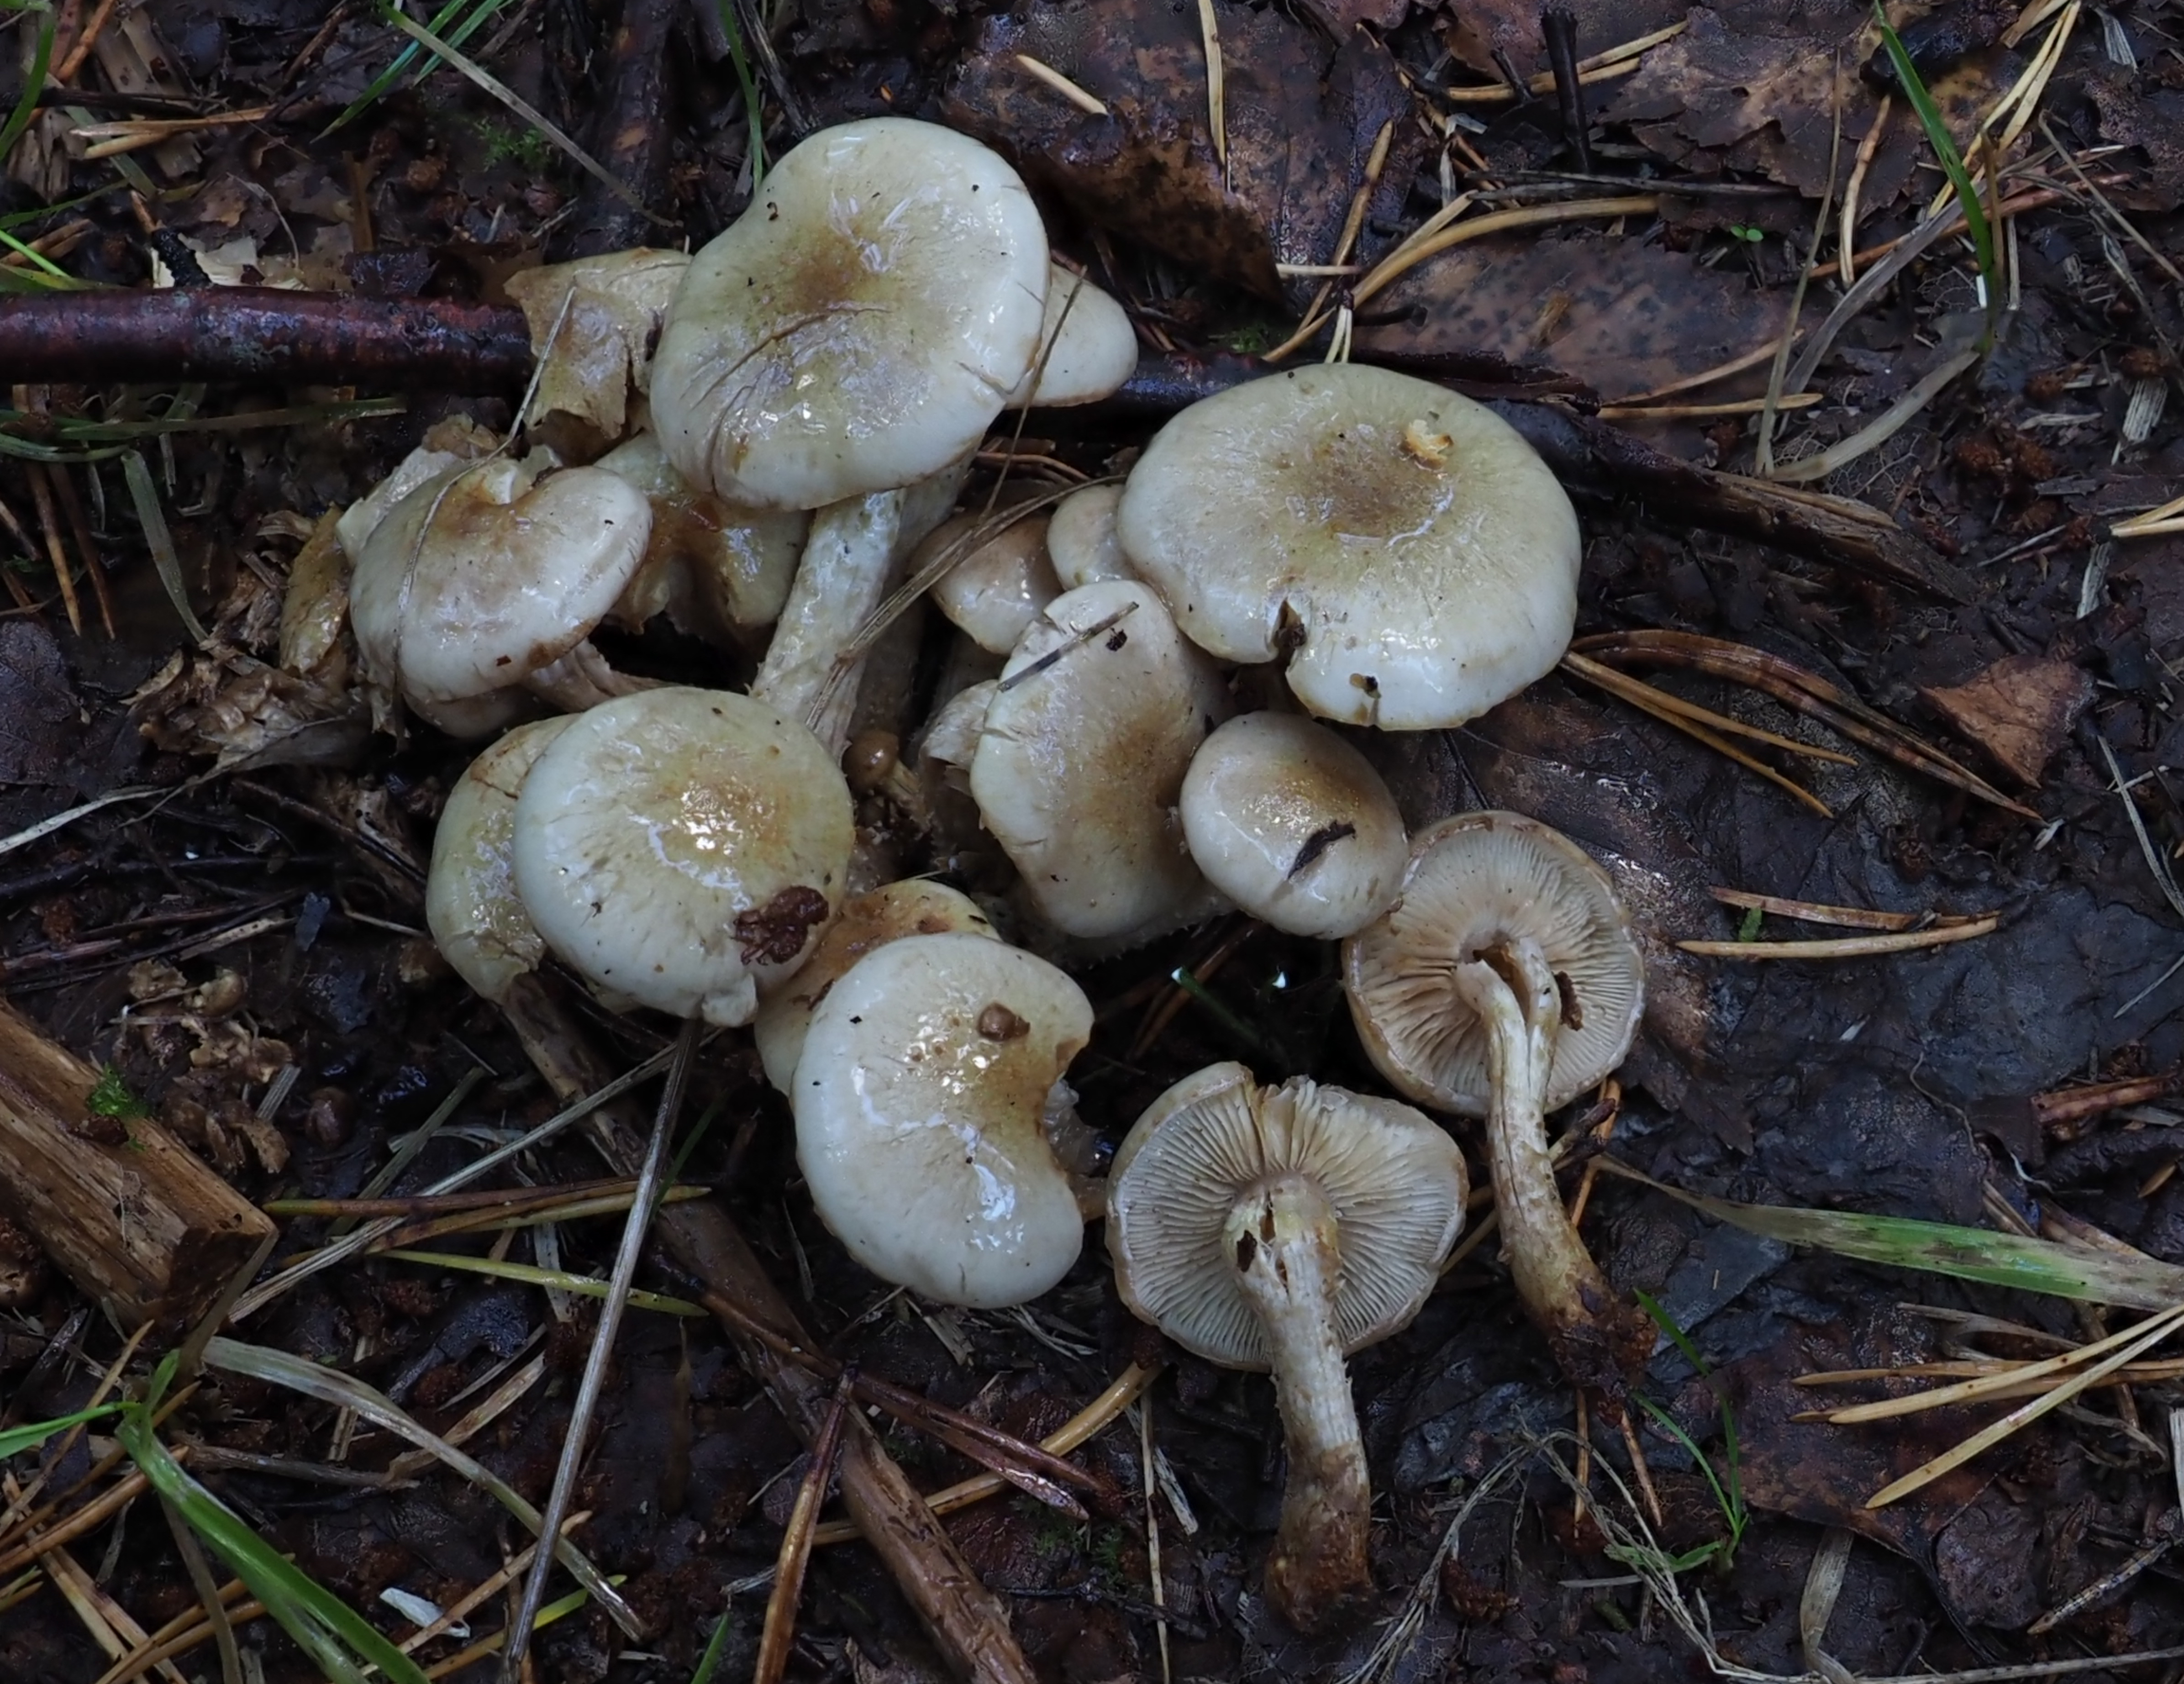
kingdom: Fungi
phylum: Basidiomycota
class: Agaricomycetes
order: Agaricales
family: Strophariaceae
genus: Pholiota
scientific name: Pholiota gummosa
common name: Sticky scalycap
